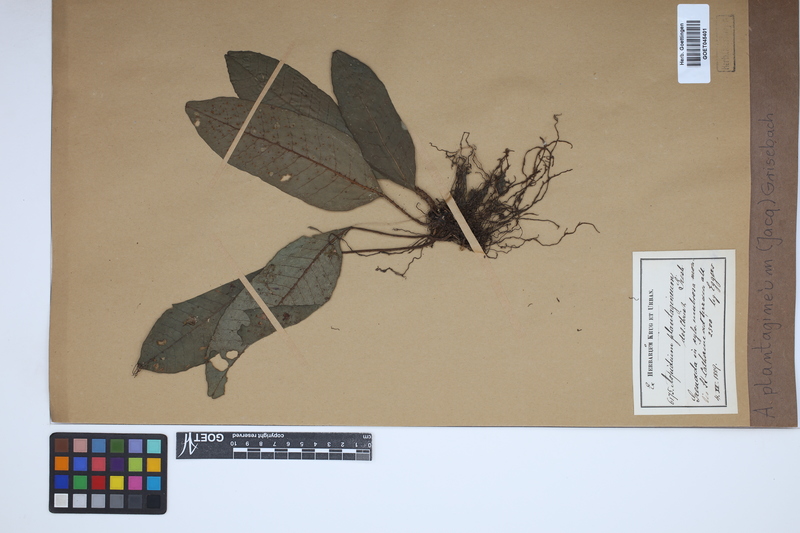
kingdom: Plantae
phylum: Tracheophyta
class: Polypodiopsida
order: Polypodiales
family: Lomariopsidaceae
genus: Dracoglossum
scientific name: Dracoglossum plantagineum
